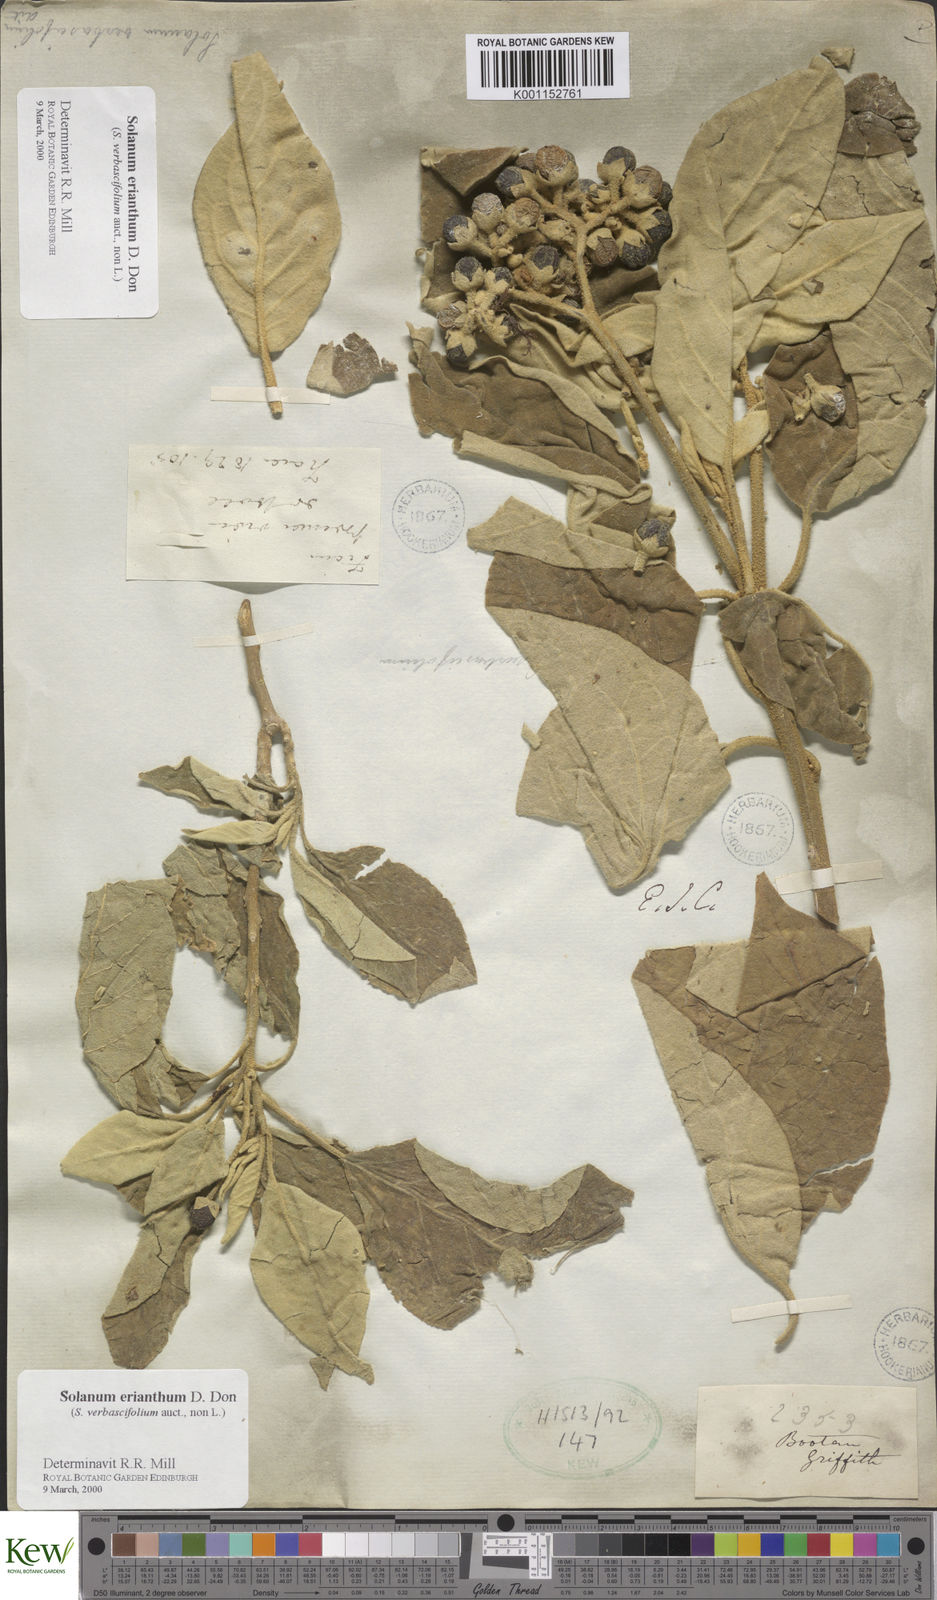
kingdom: Plantae
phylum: Tracheophyta
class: Magnoliopsida
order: Solanales
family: Solanaceae
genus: Solanum
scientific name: Solanum erianthum
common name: Tobacco-tree
